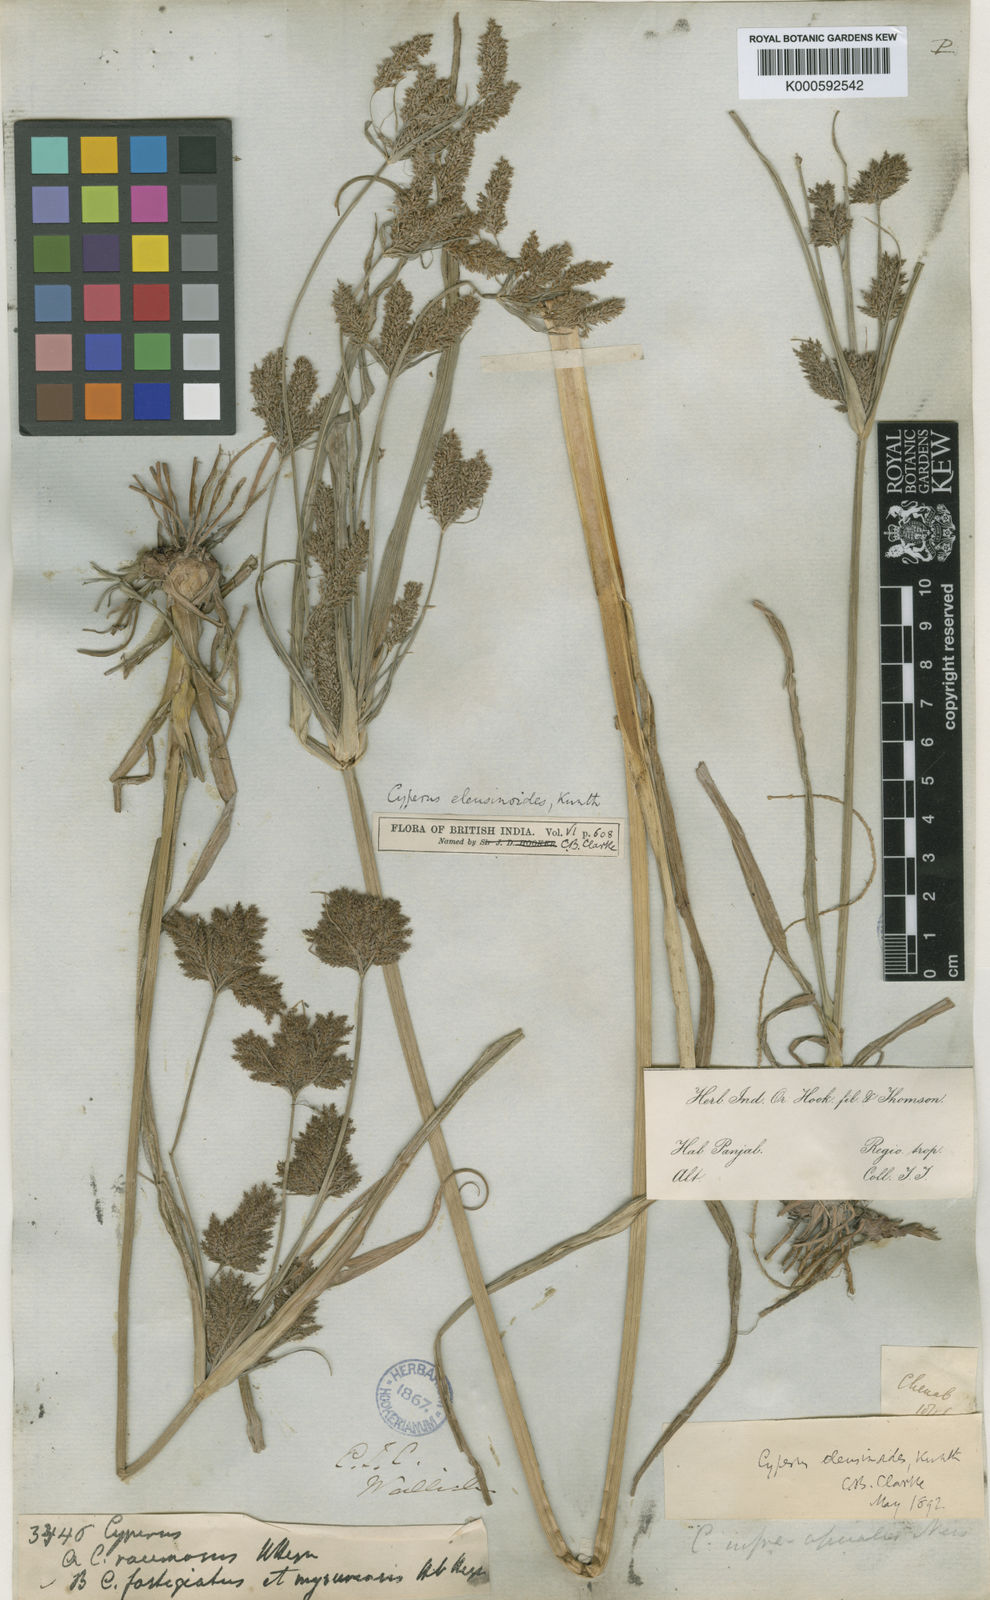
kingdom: Plantae
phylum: Tracheophyta
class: Liliopsida
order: Poales
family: Cyperaceae
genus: Cyperus
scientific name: Cyperus nutans
